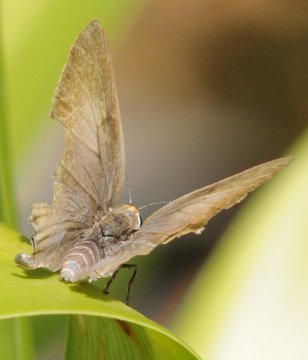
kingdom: Animalia
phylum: Arthropoda
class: Insecta
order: Lepidoptera
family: Lycaenidae
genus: Hypolycaena
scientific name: Hypolycaena philippus
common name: Common Hairstreak
